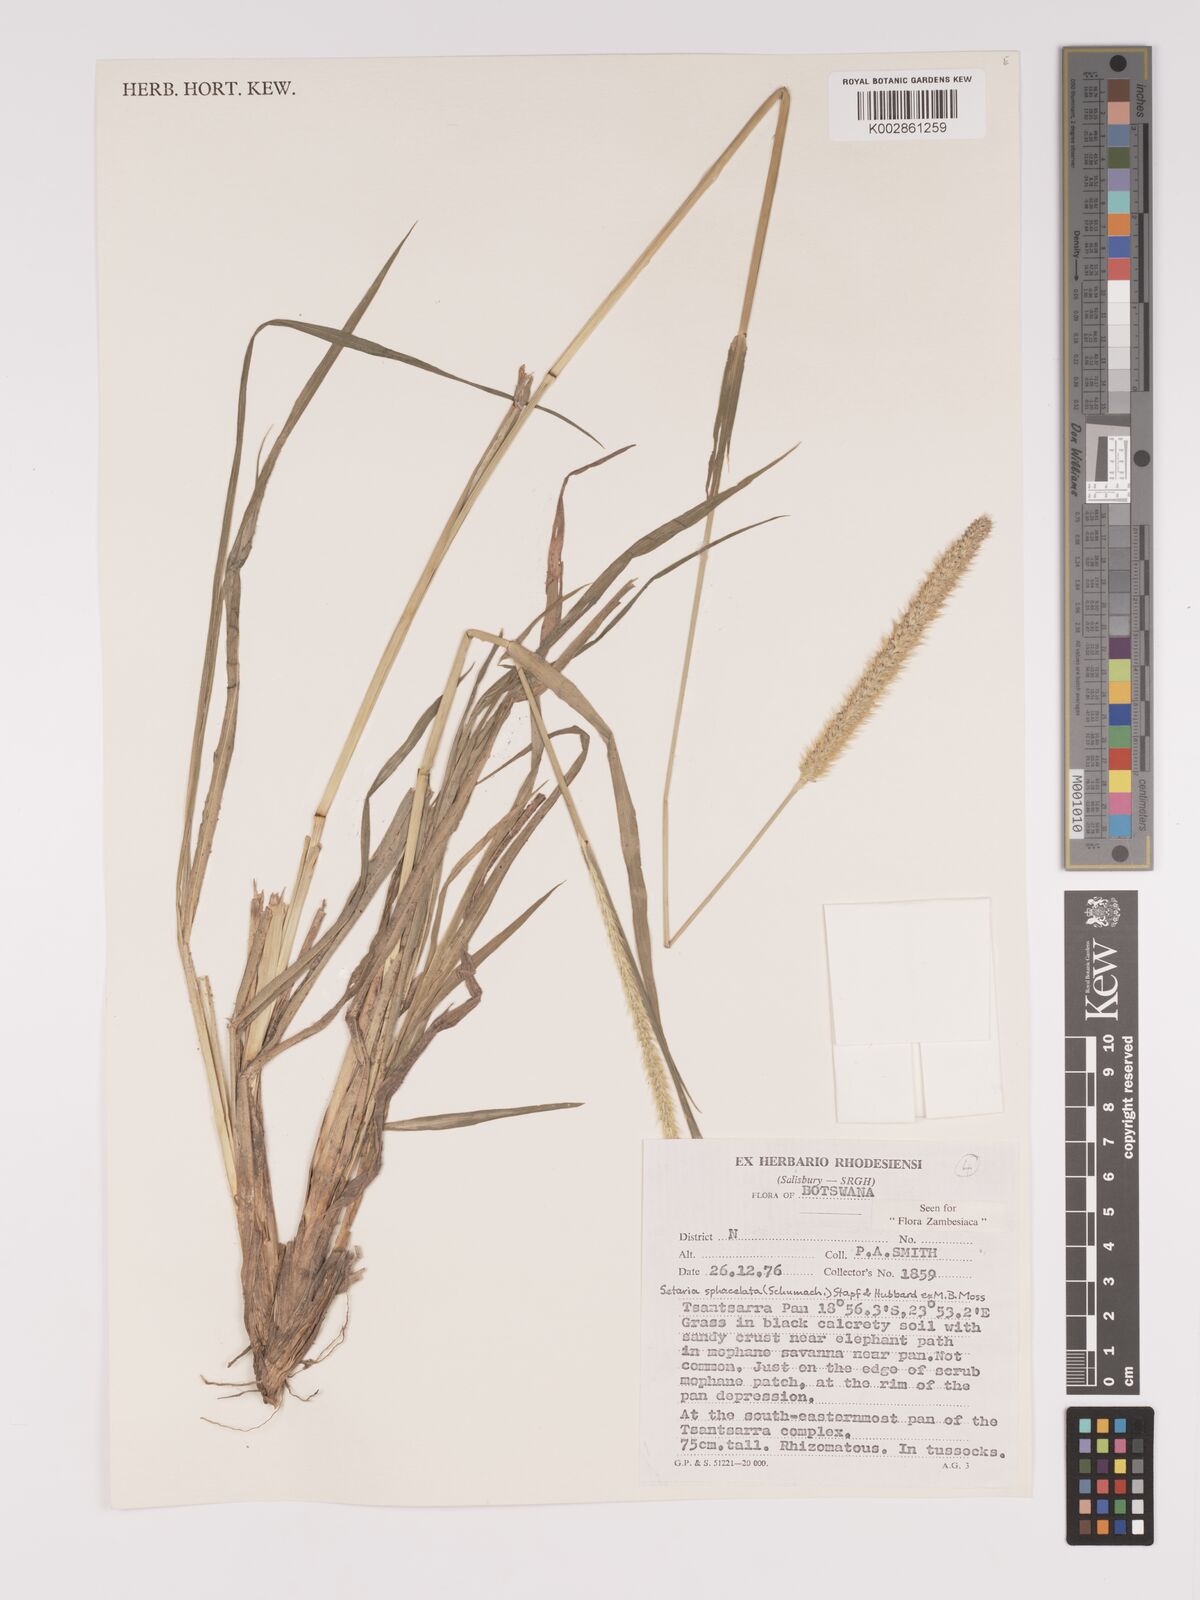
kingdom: Plantae
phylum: Tracheophyta
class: Liliopsida
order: Poales
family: Poaceae
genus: Setaria
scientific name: Setaria sphacelata
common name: African bristlegrass
